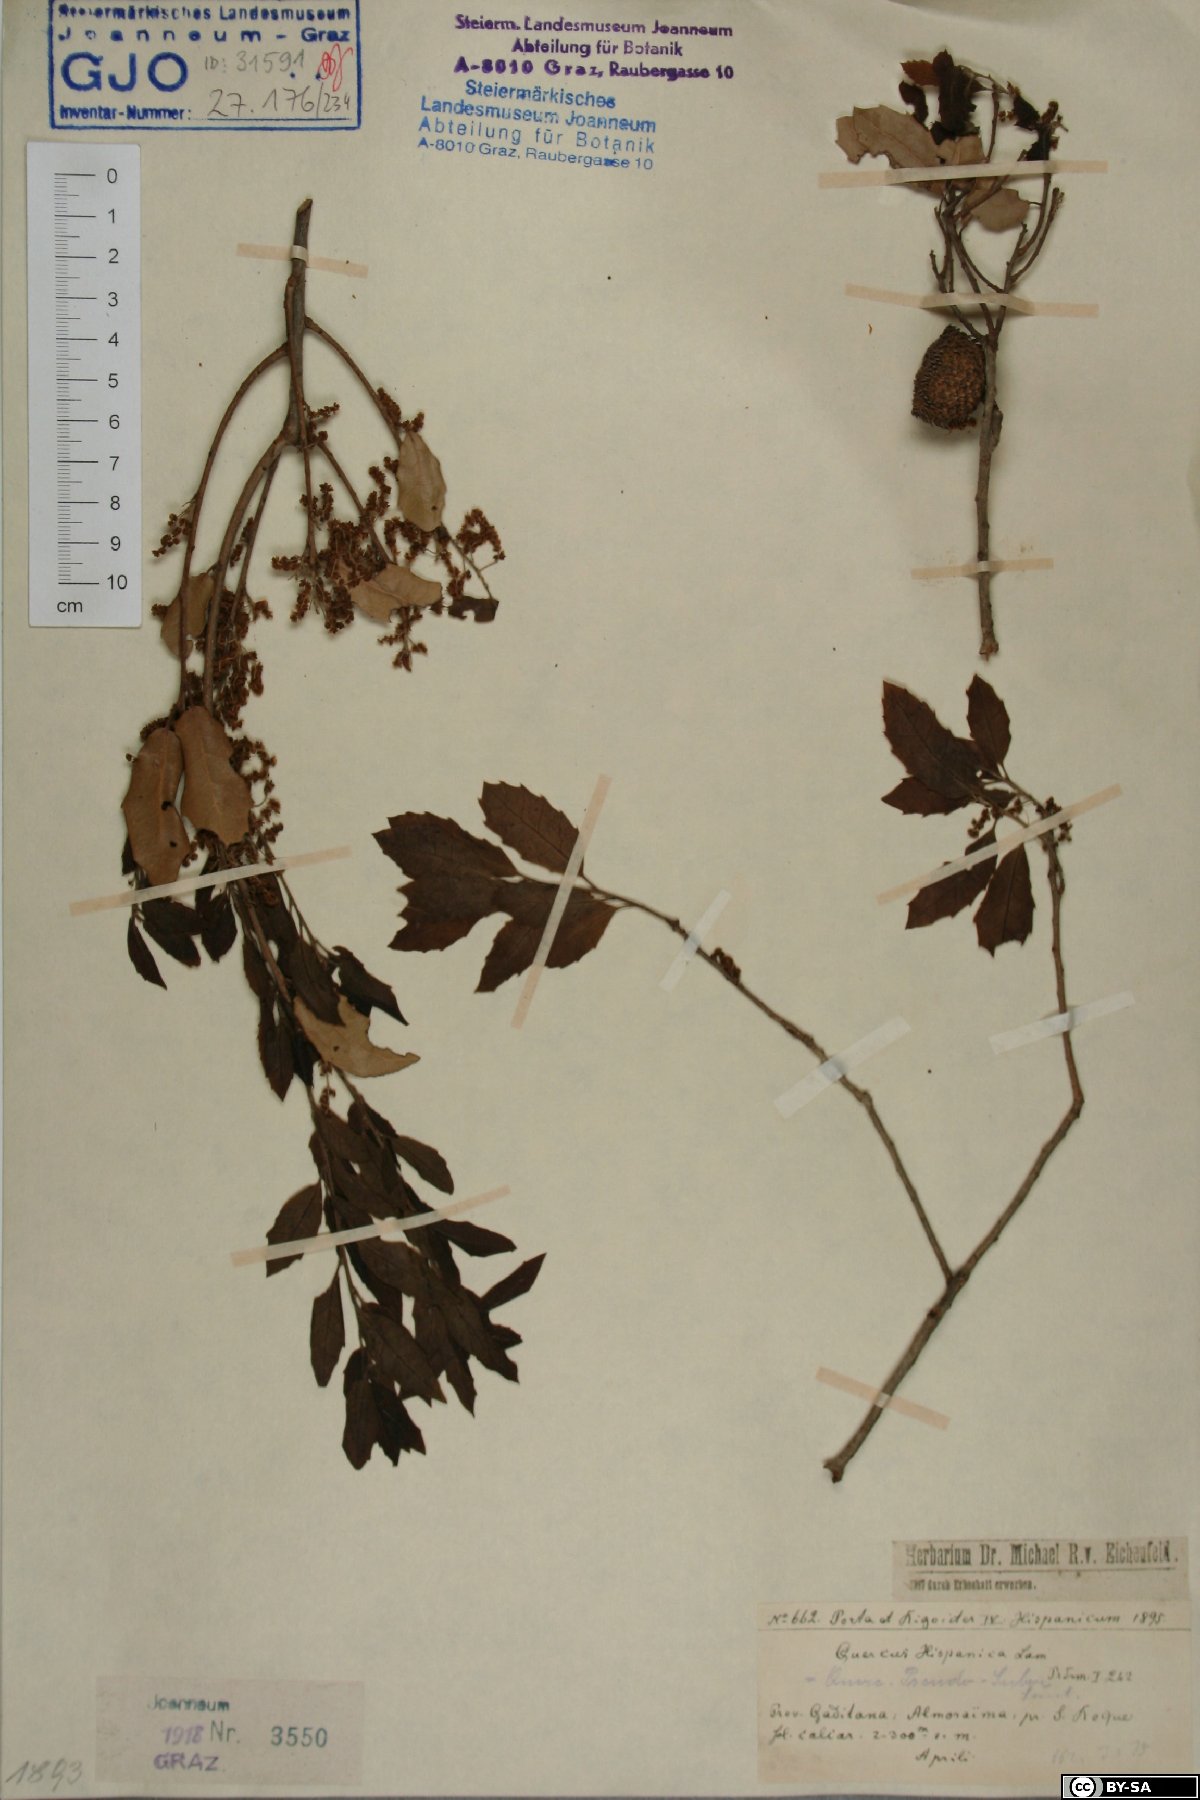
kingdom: Plantae
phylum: Tracheophyta
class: Magnoliopsida
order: Fagales
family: Fagaceae
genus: Quercus
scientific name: Quercus hispanica
